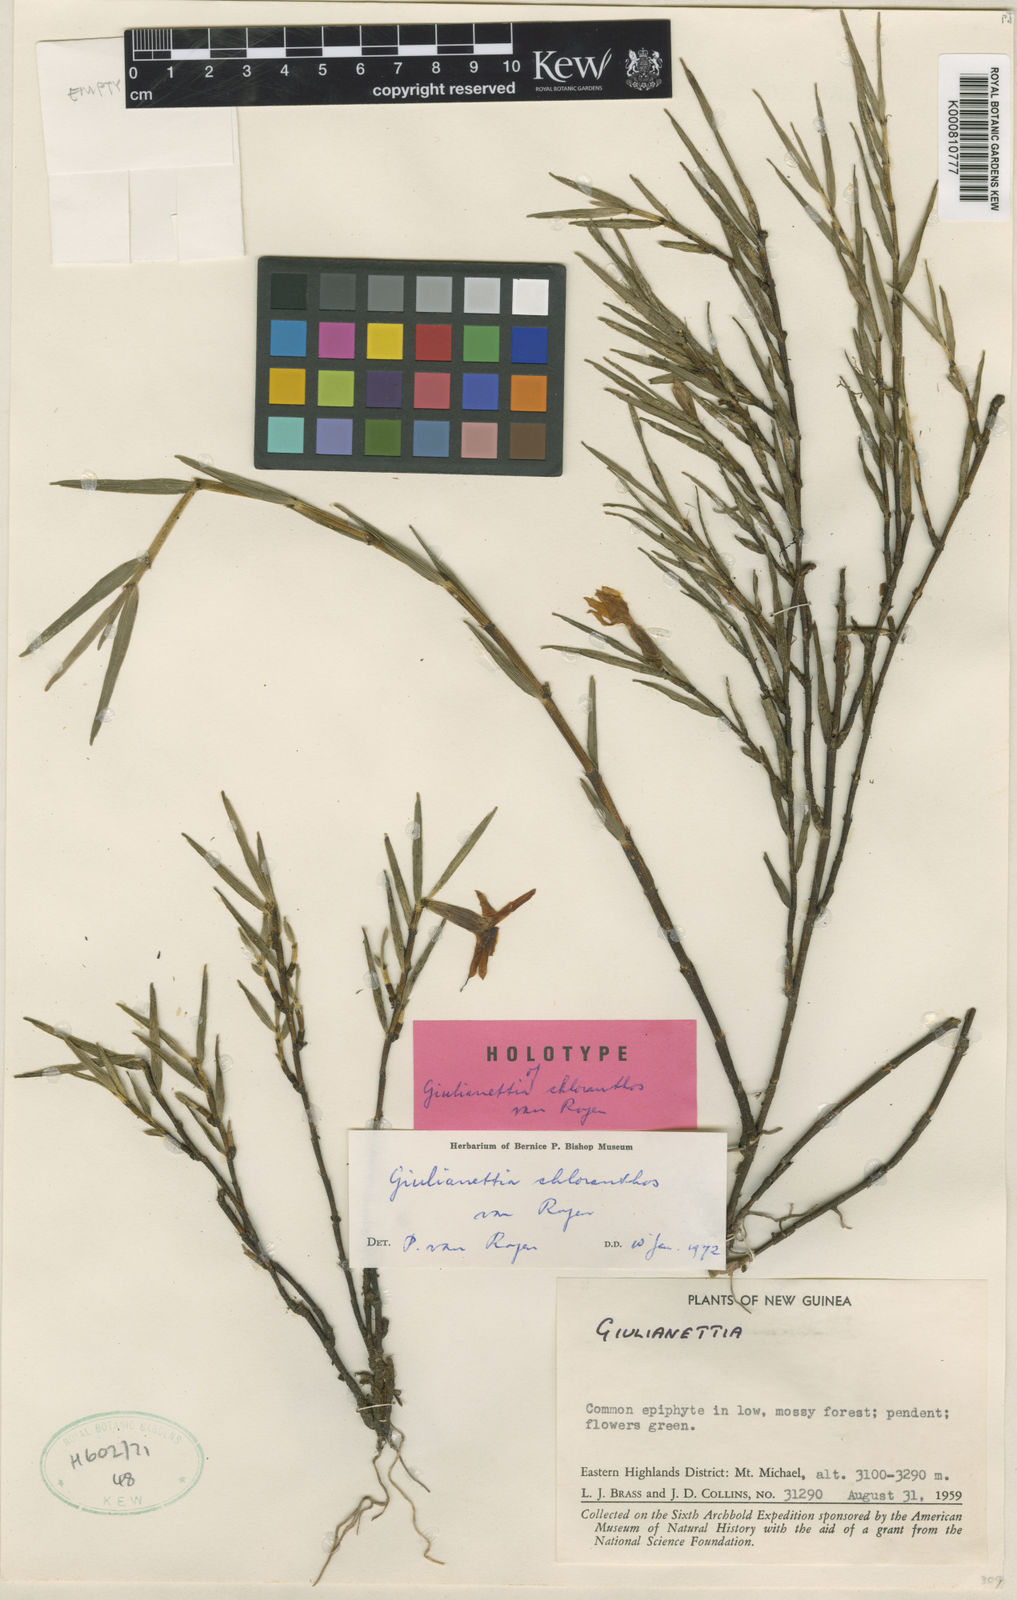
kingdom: Plantae
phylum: Tracheophyta
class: Liliopsida
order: Asparagales
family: Orchidaceae
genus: Glomera
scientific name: Glomera noroma
